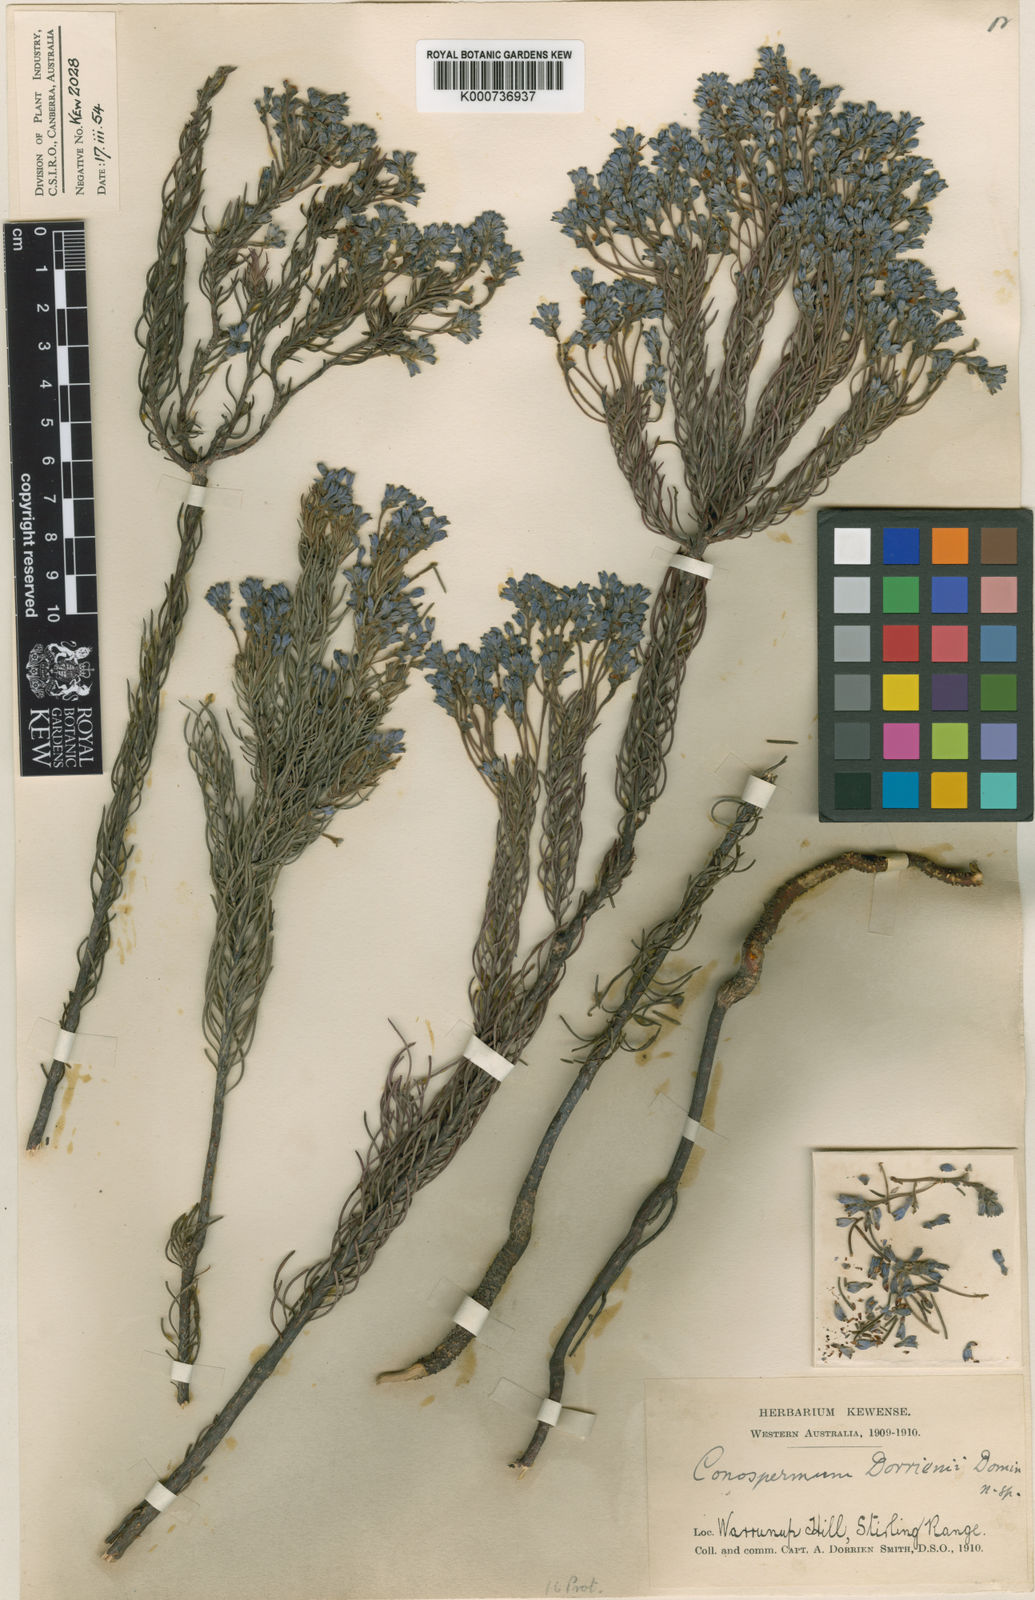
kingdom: Plantae
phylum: Tracheophyta
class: Magnoliopsida
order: Proteales
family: Proteaceae
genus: Conospermum
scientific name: Conospermum coerulescens
